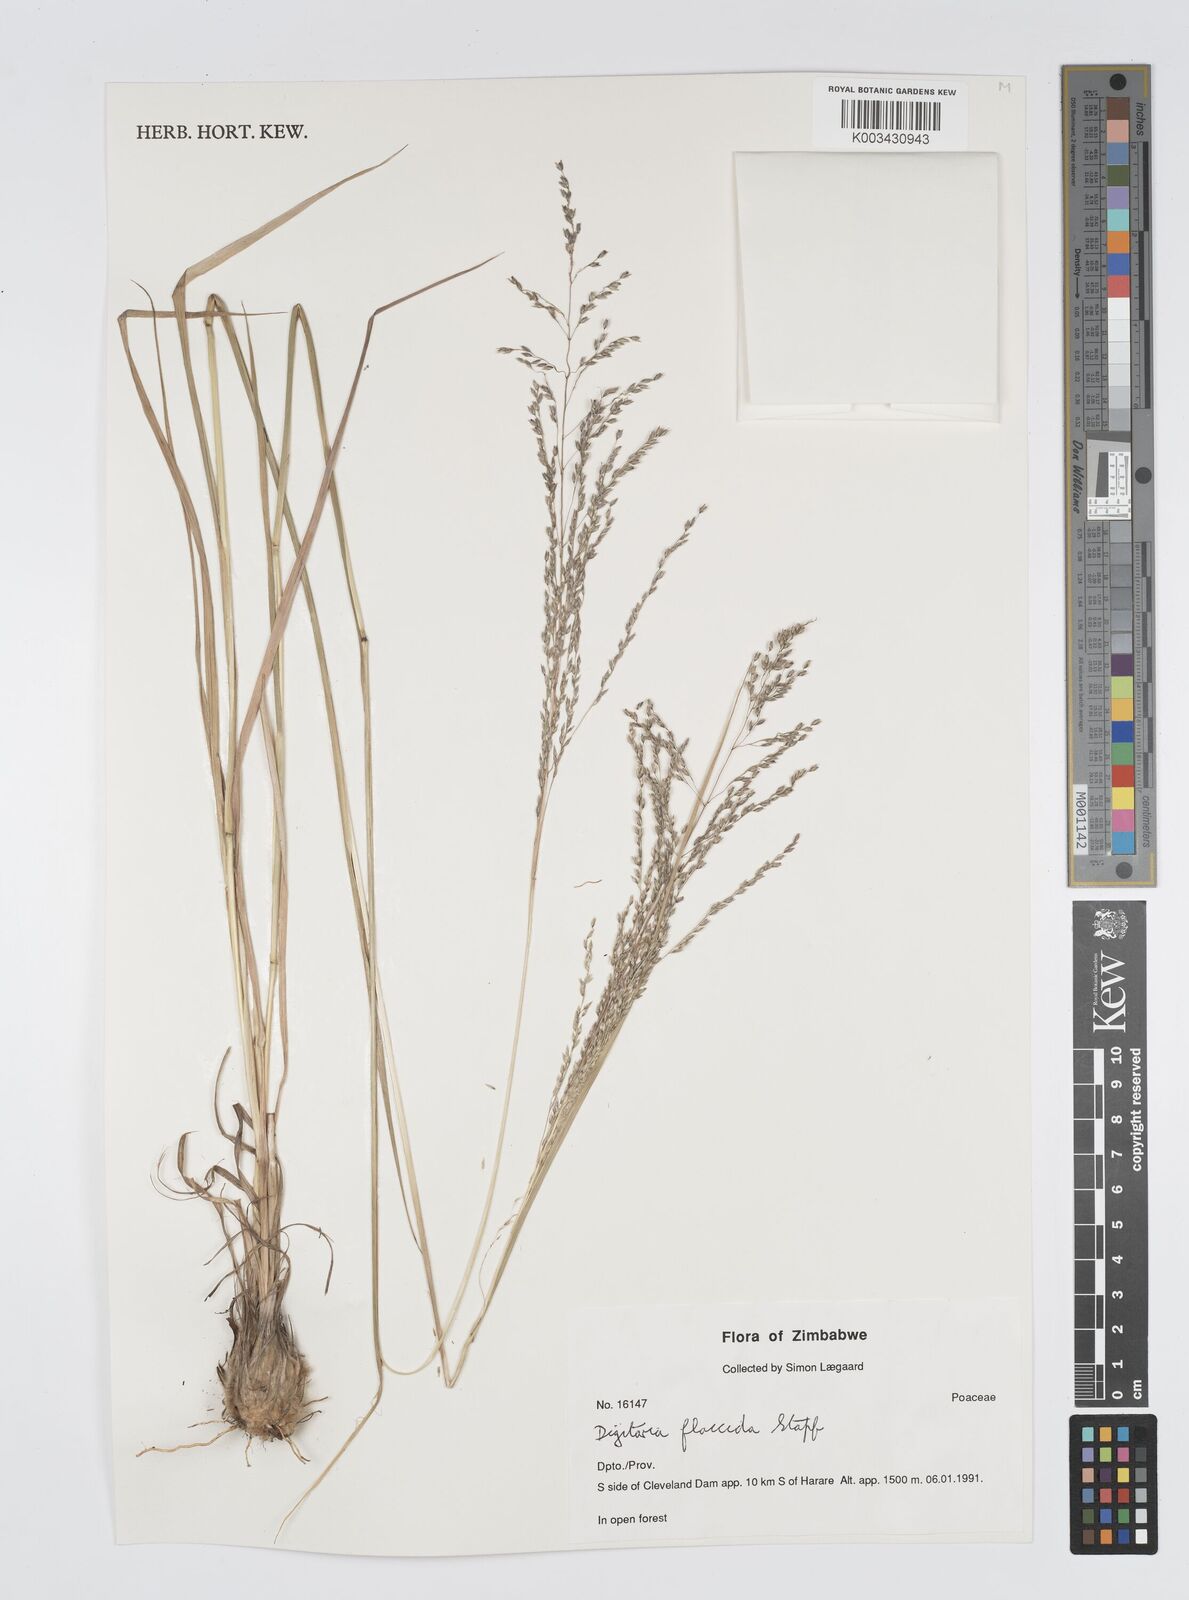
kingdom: Plantae
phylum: Tracheophyta
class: Liliopsida
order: Poales
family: Poaceae
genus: Digitaria
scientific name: Digitaria flaccida
